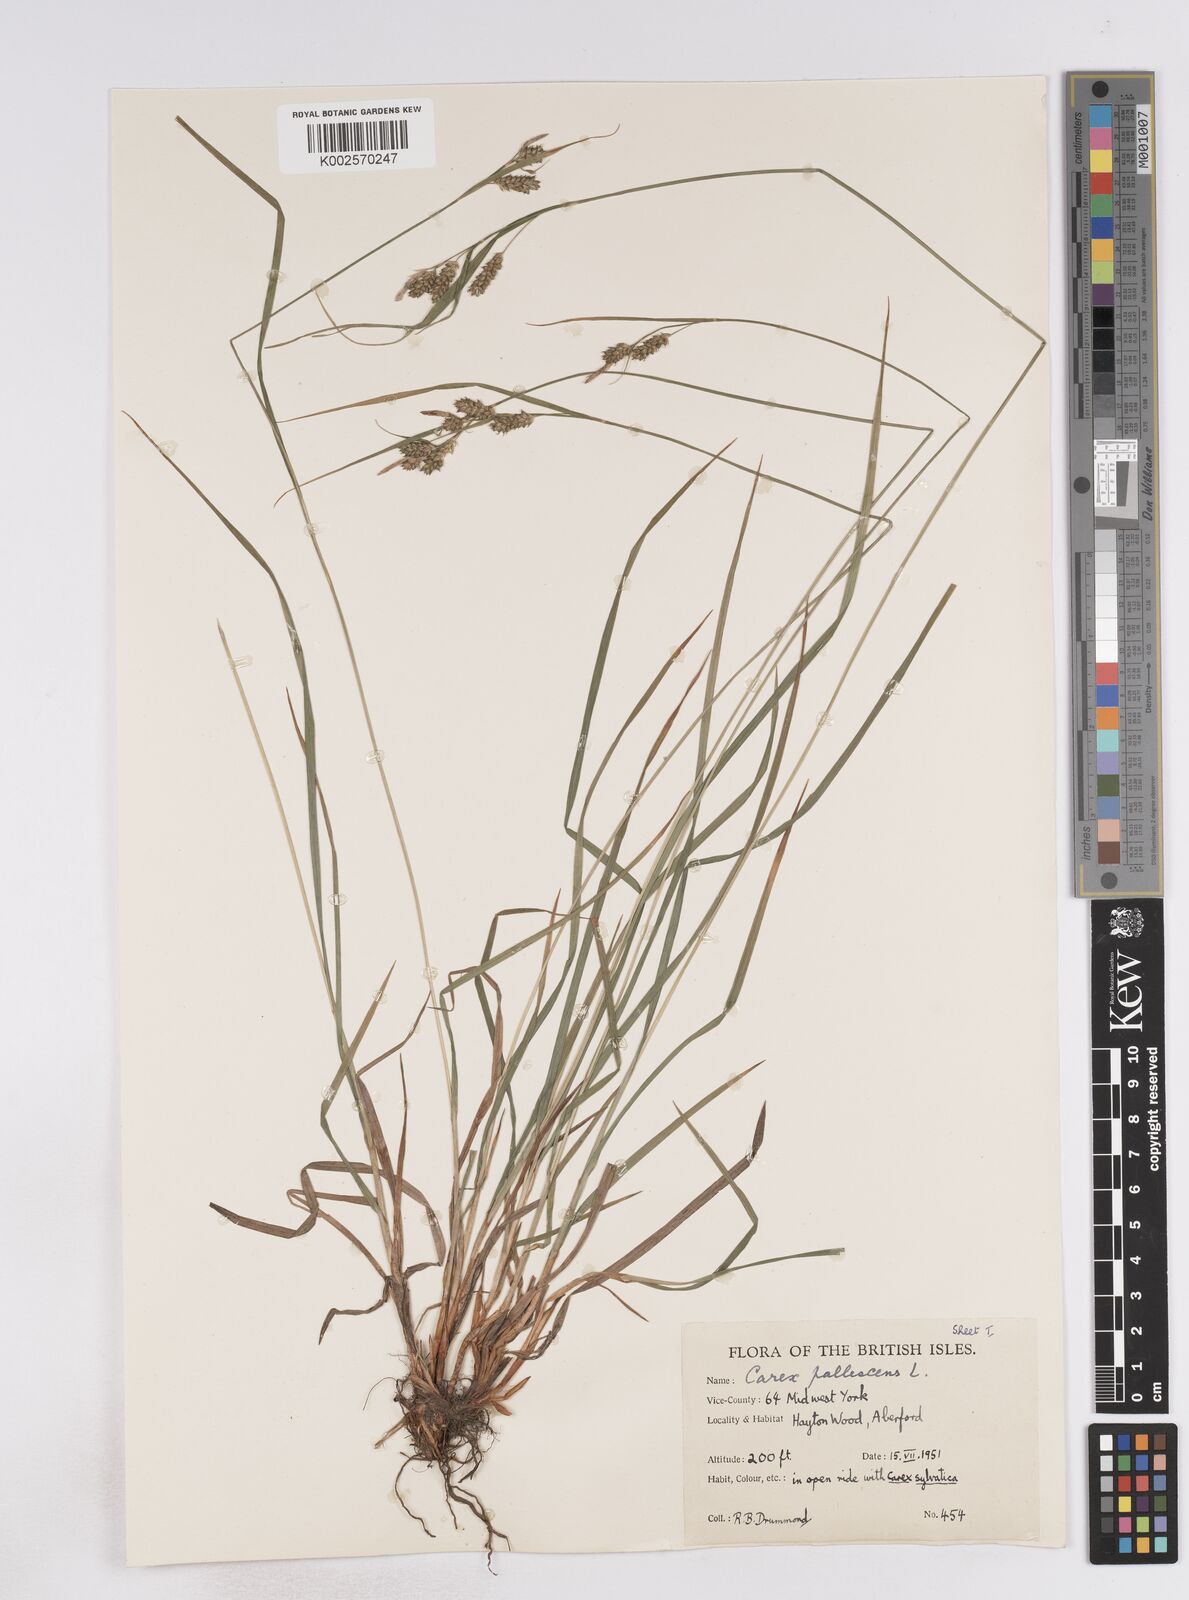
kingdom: Plantae
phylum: Tracheophyta
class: Liliopsida
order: Poales
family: Cyperaceae
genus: Carex
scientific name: Carex pallescens
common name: Pale sedge
